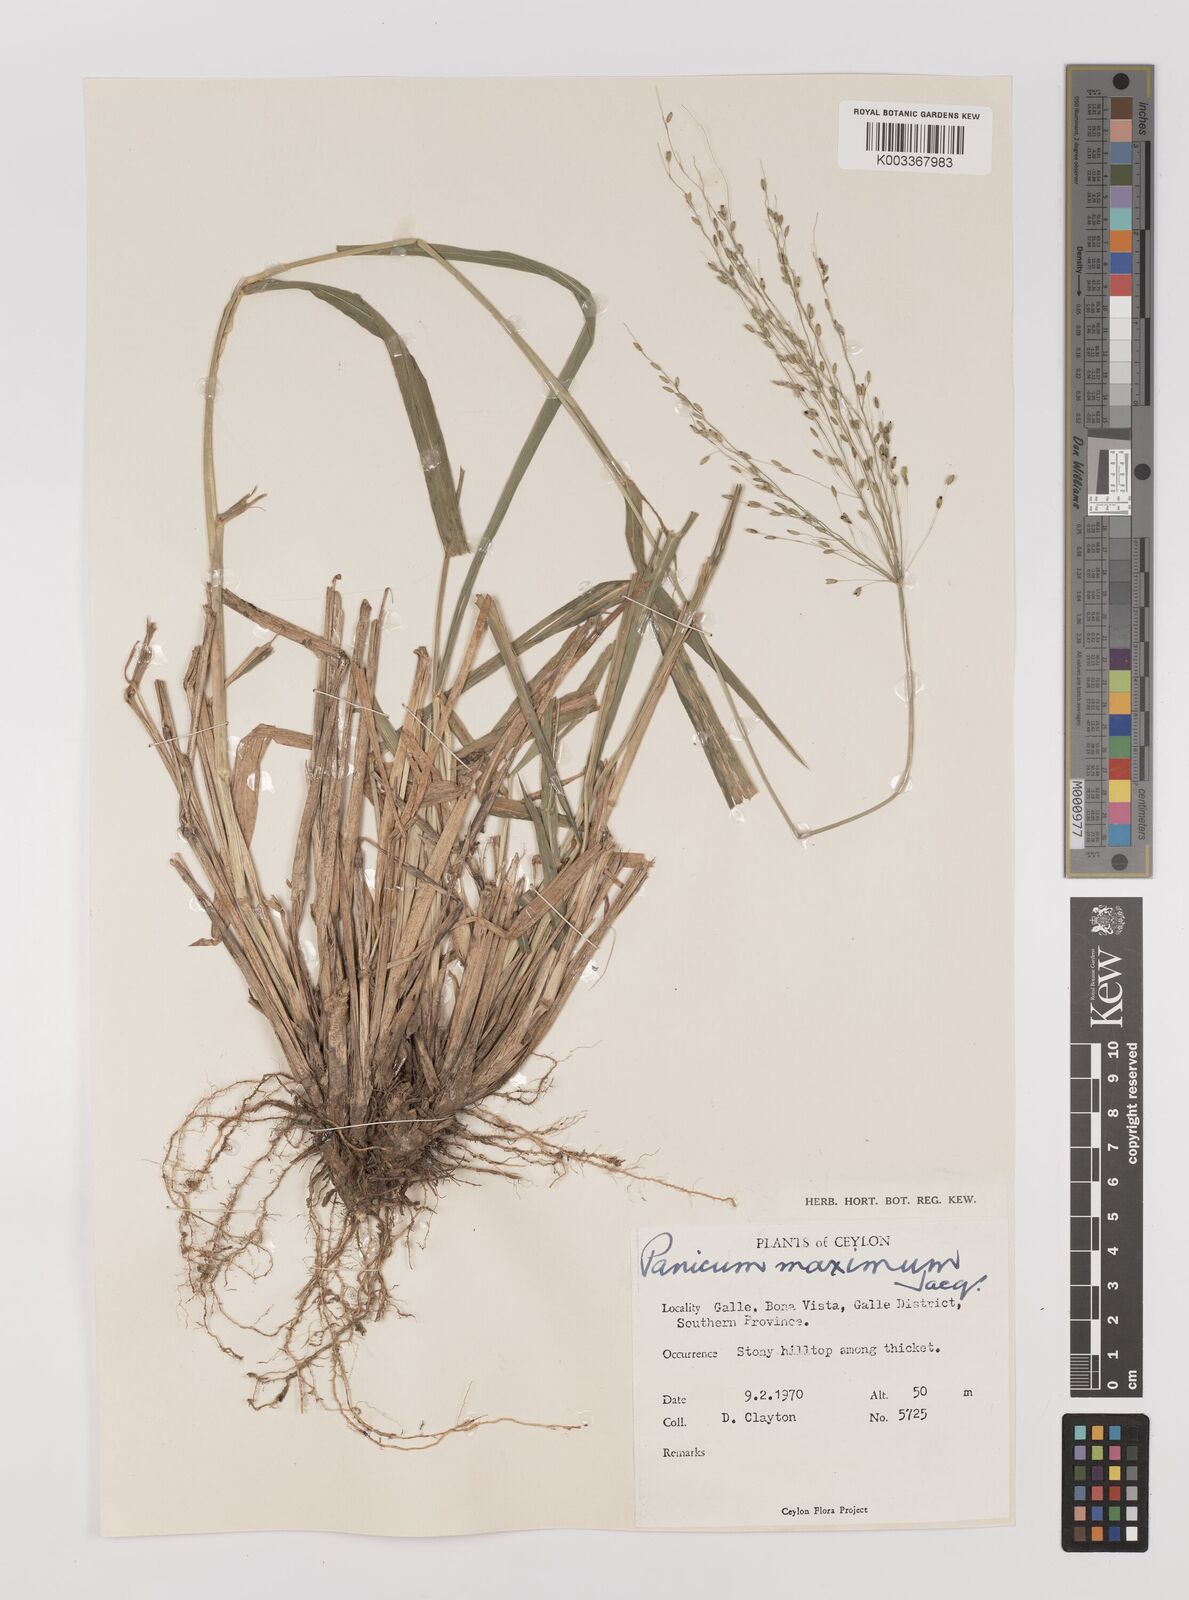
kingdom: Plantae
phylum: Tracheophyta
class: Liliopsida
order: Poales
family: Poaceae
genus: Megathyrsus
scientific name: Megathyrsus maximus
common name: Guineagrass
